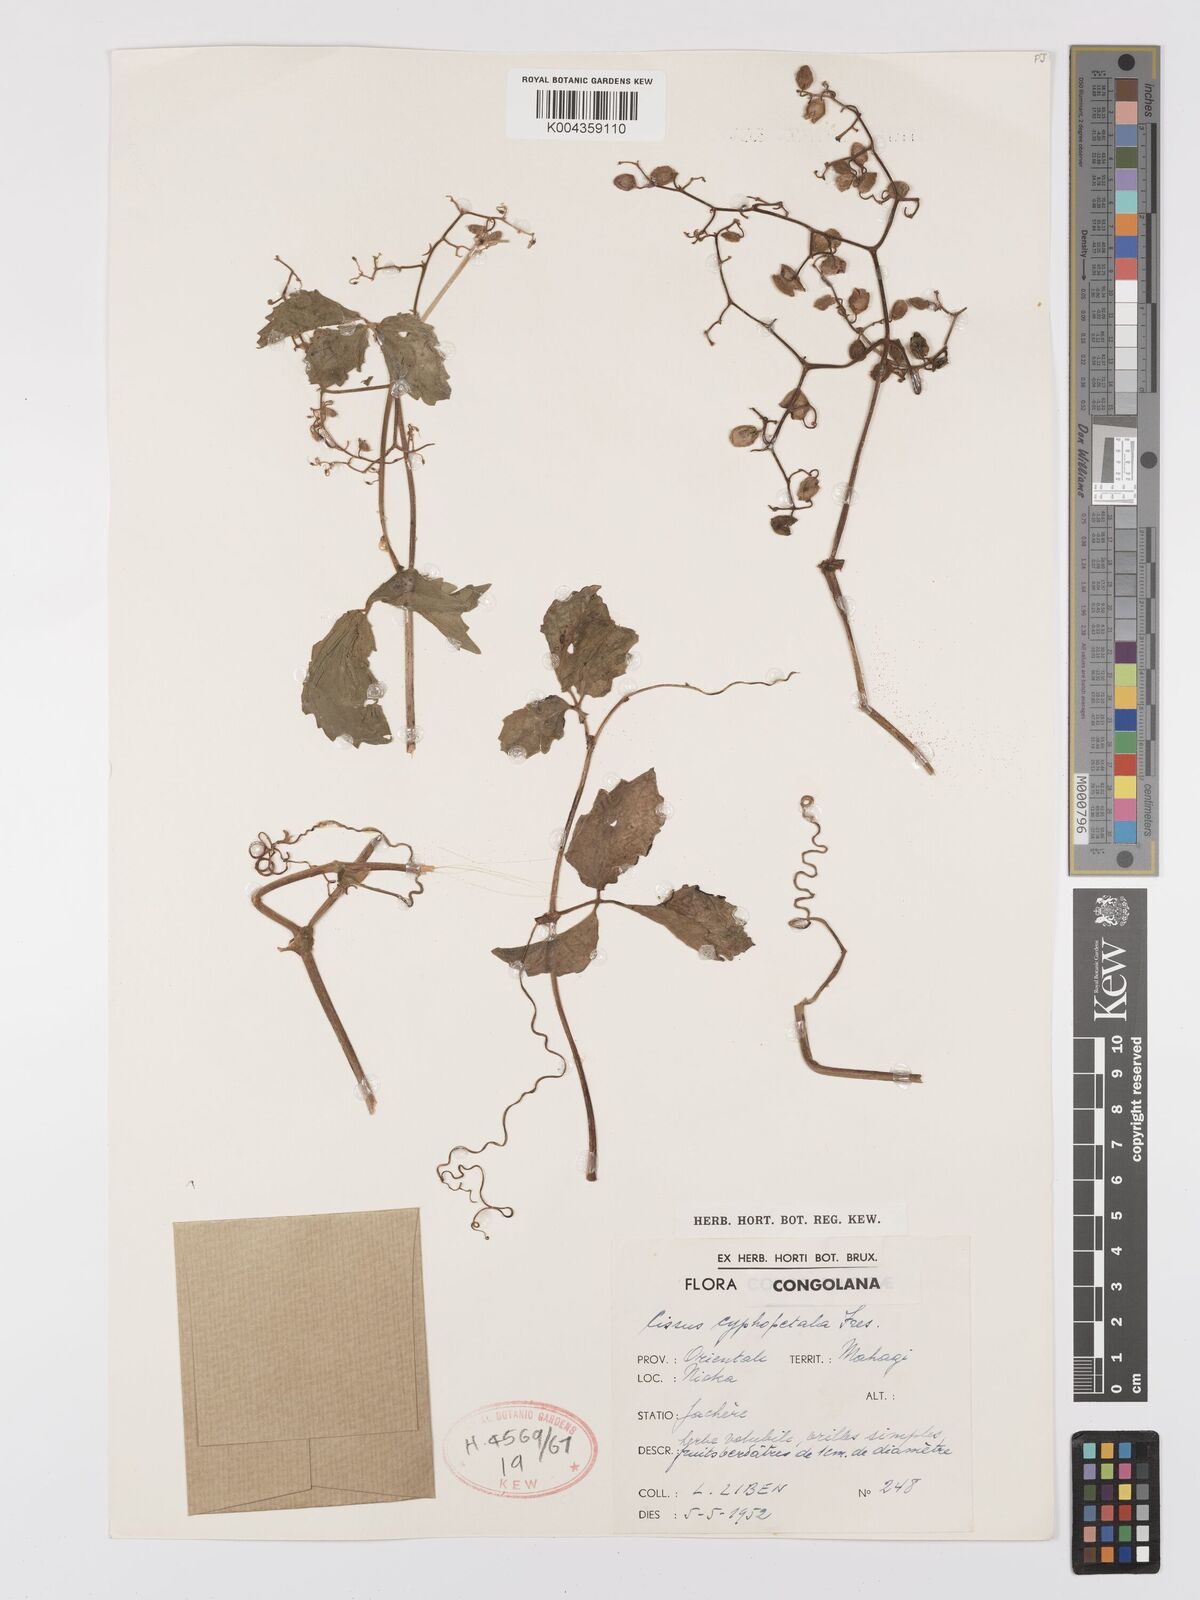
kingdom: Plantae
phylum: Tracheophyta
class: Magnoliopsida
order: Vitales
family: Vitaceae
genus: Cyphostemma
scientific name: Cyphostemma cyphopetalum
